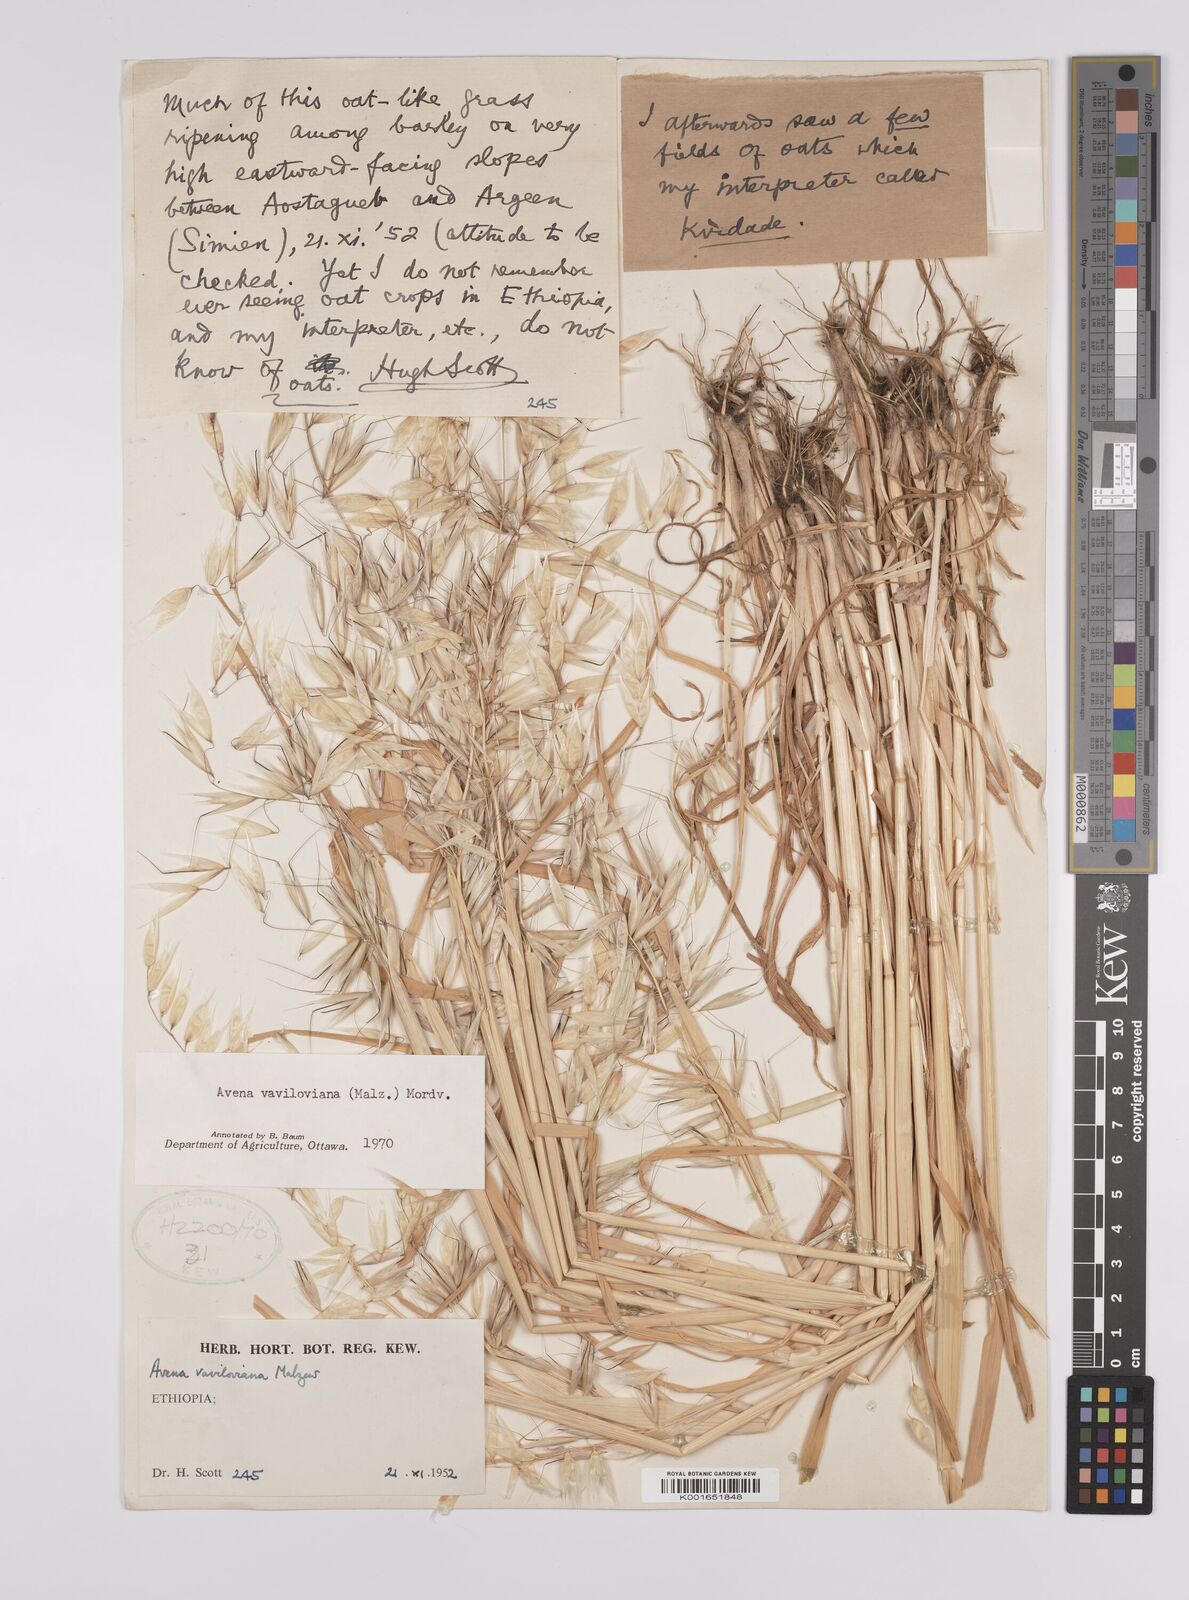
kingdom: Plantae
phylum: Tracheophyta
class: Liliopsida
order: Poales
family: Poaceae
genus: Avena
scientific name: Avena vaviloviana
